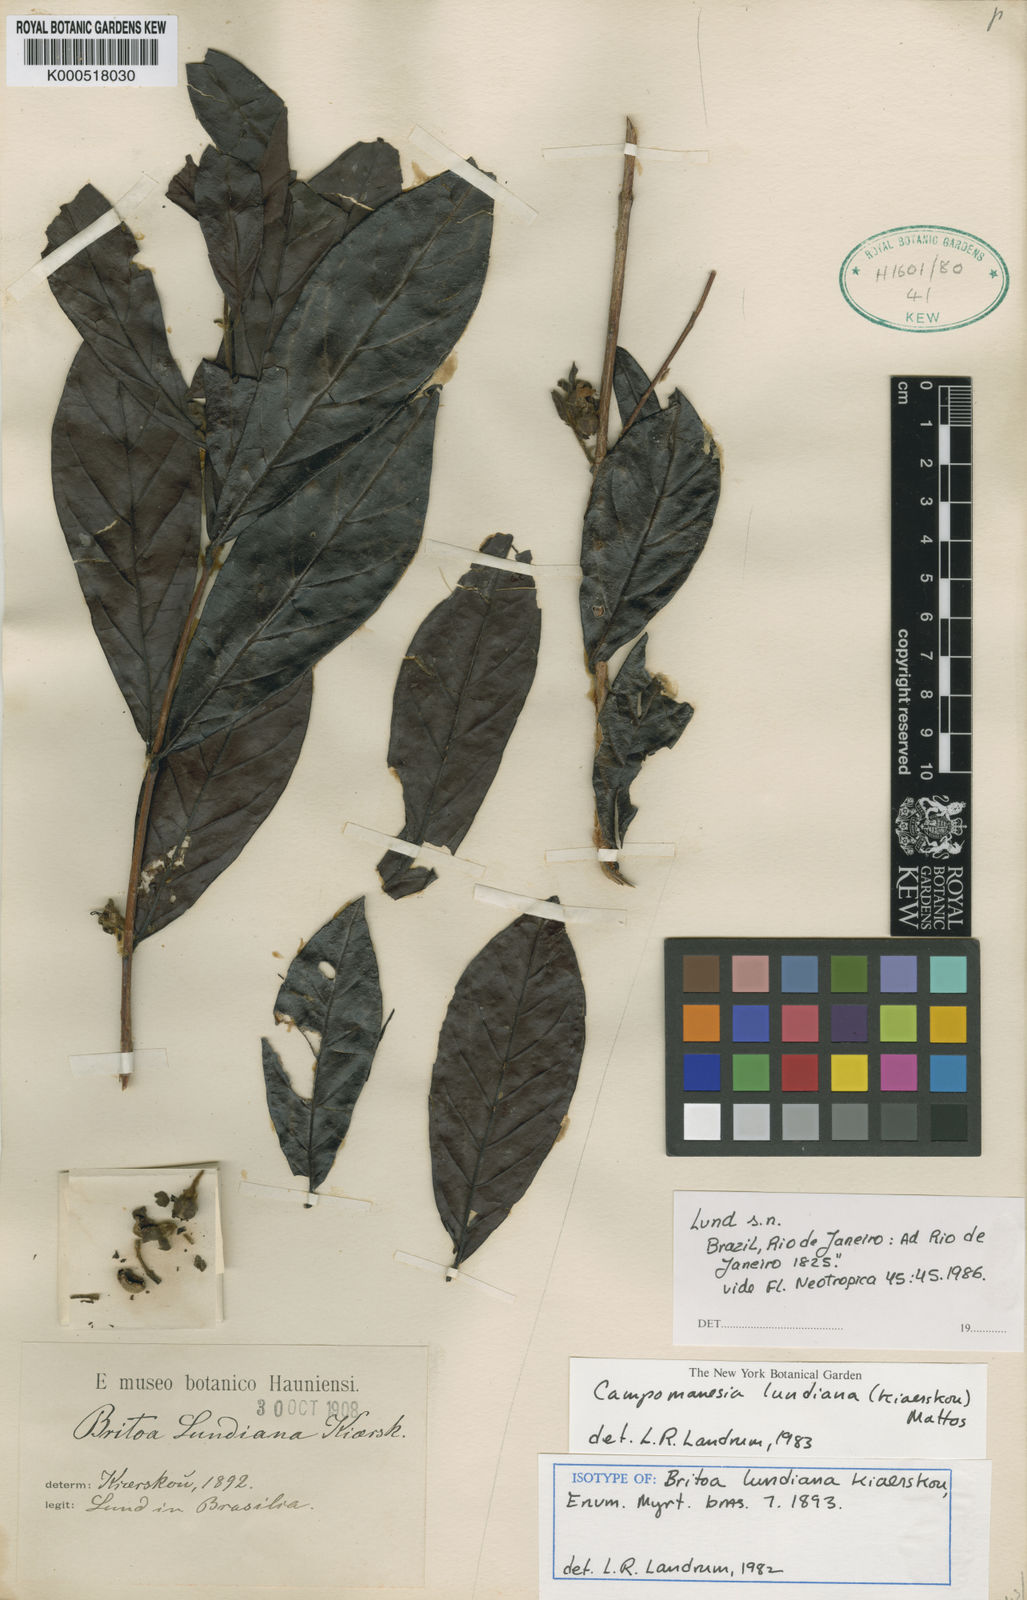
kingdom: Plantae
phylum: Tracheophyta
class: Magnoliopsida
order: Myrtales
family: Myrtaceae
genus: Campomanesia
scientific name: Campomanesia lundiana
